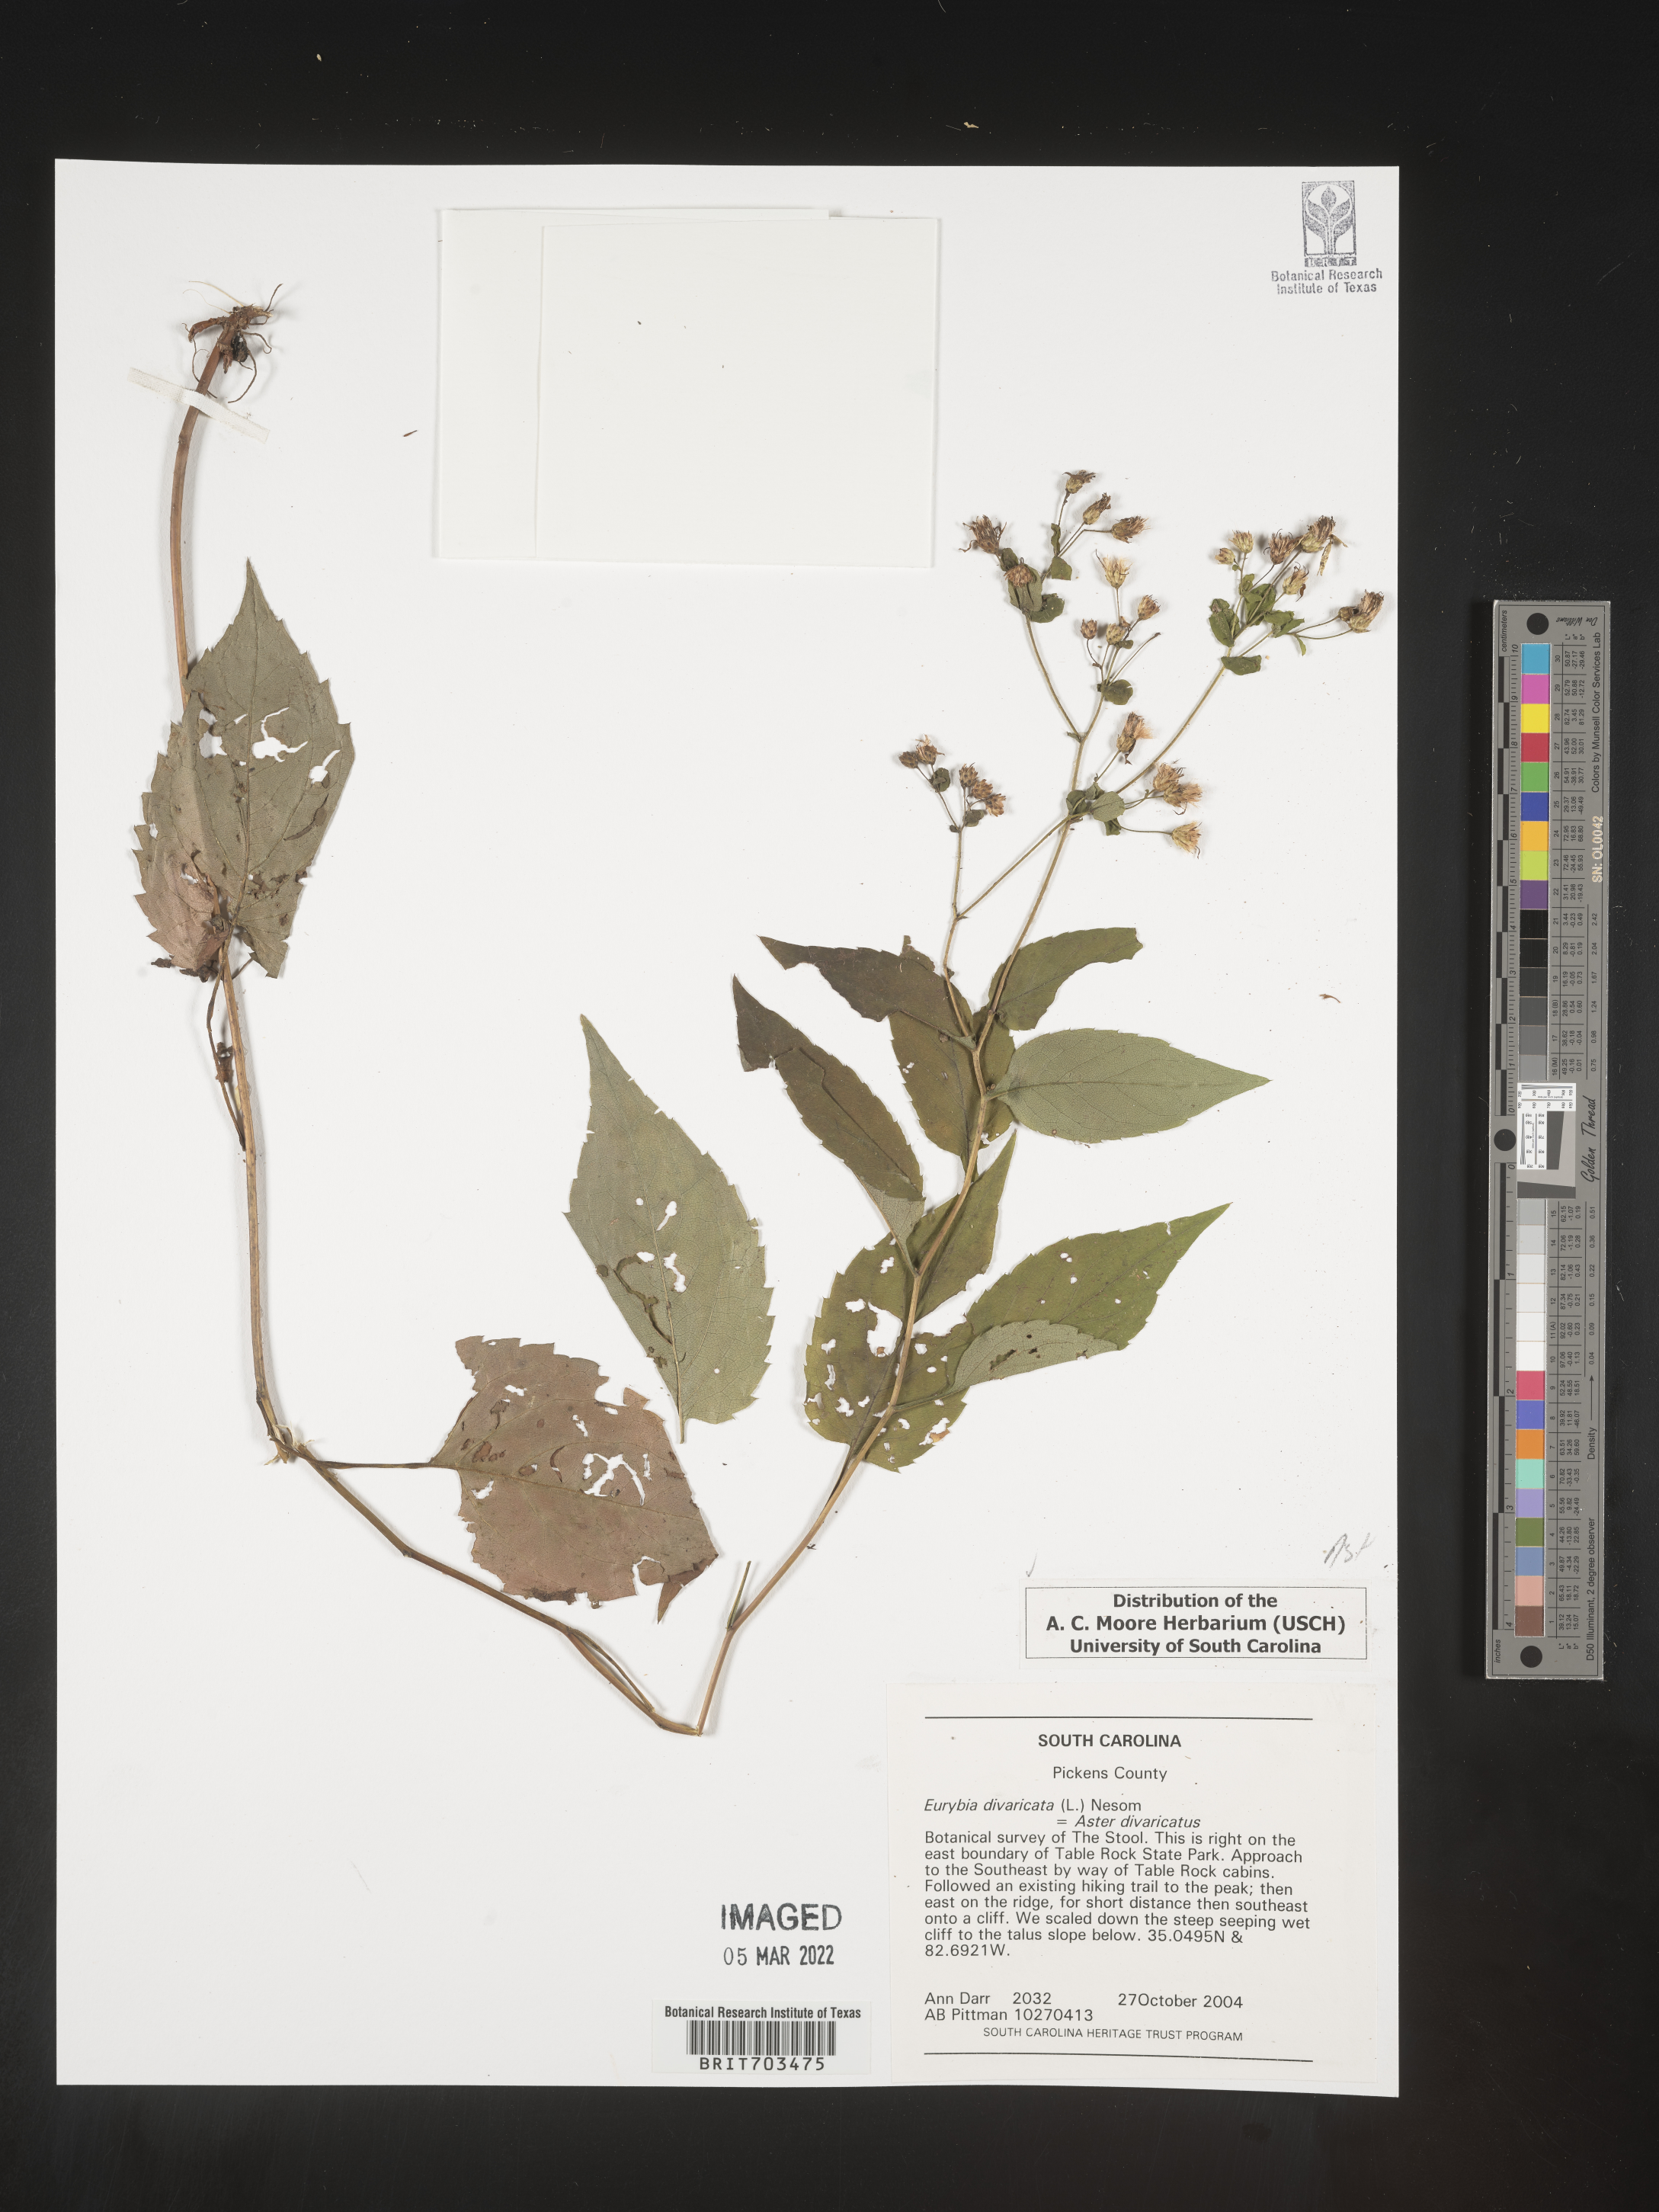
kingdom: Plantae
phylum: Tracheophyta
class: Magnoliopsida
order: Asterales
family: Asteraceae
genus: Eurybia
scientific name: Eurybia divaricata
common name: White wood aster
